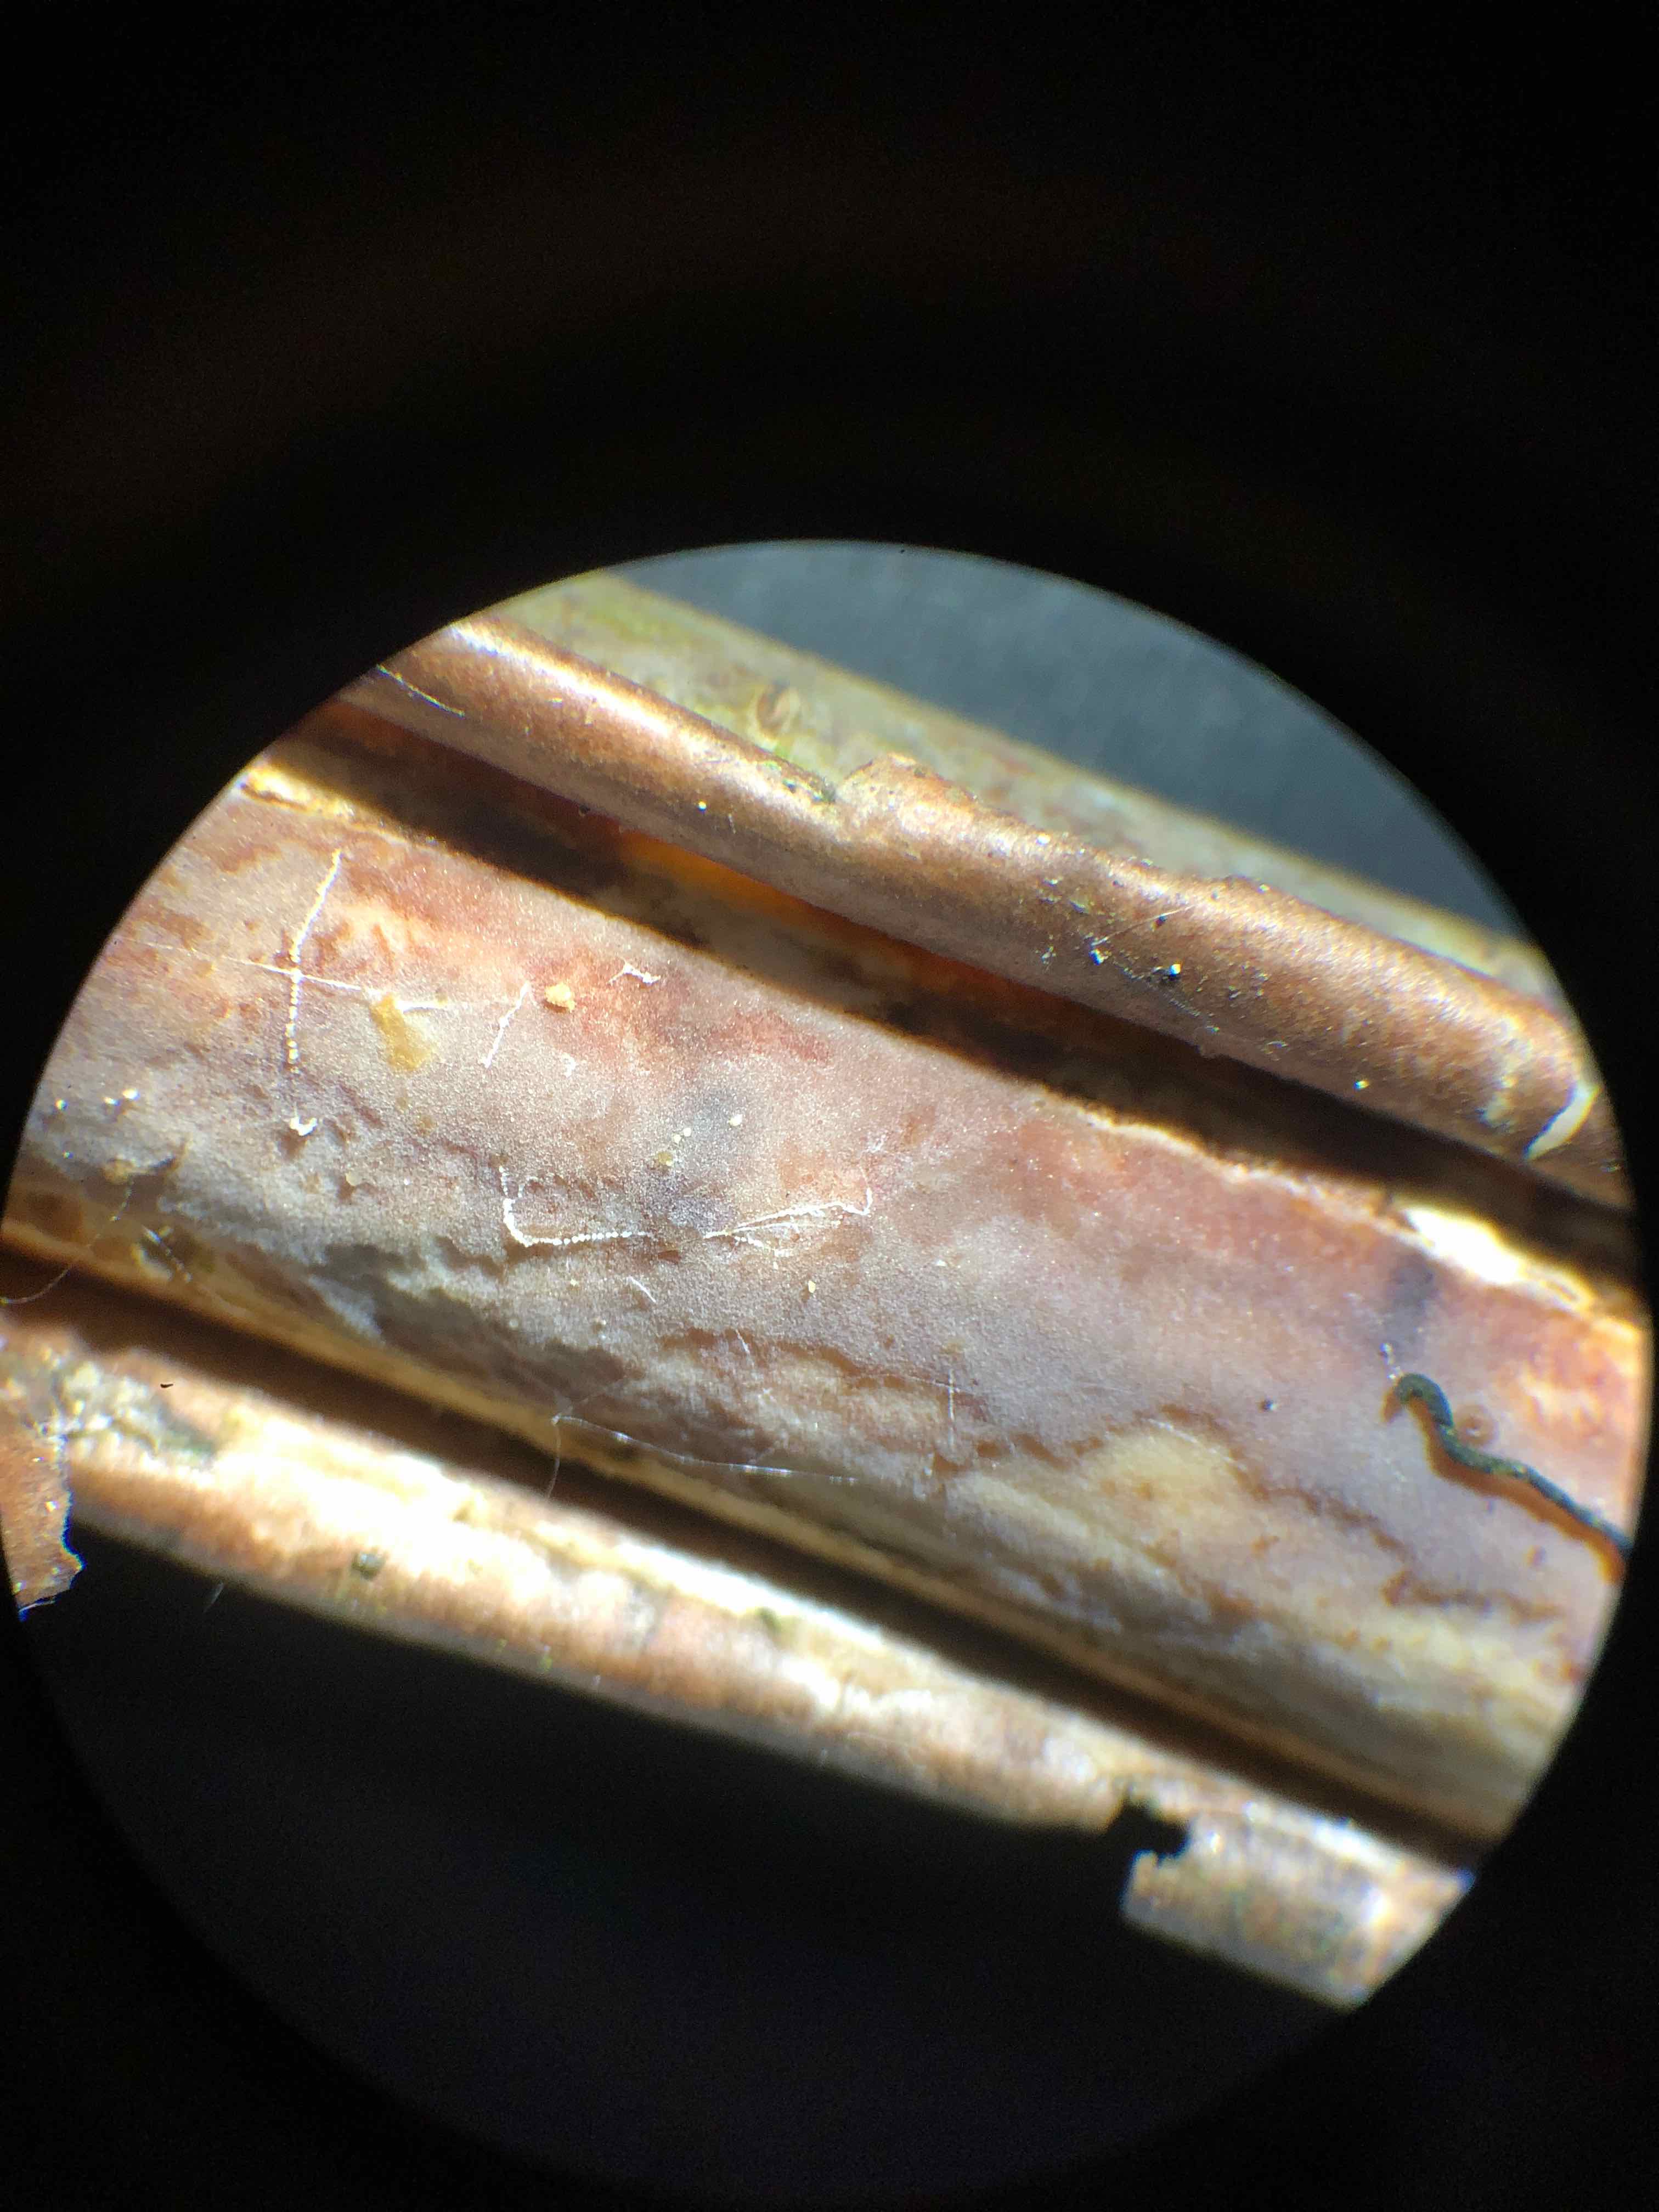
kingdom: Fungi
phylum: Basidiomycota
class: Agaricomycetes
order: Corticiales
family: Vuilleminiaceae
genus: Vuilleminia
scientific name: Vuilleminia coryli
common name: hassel-barksprænger
